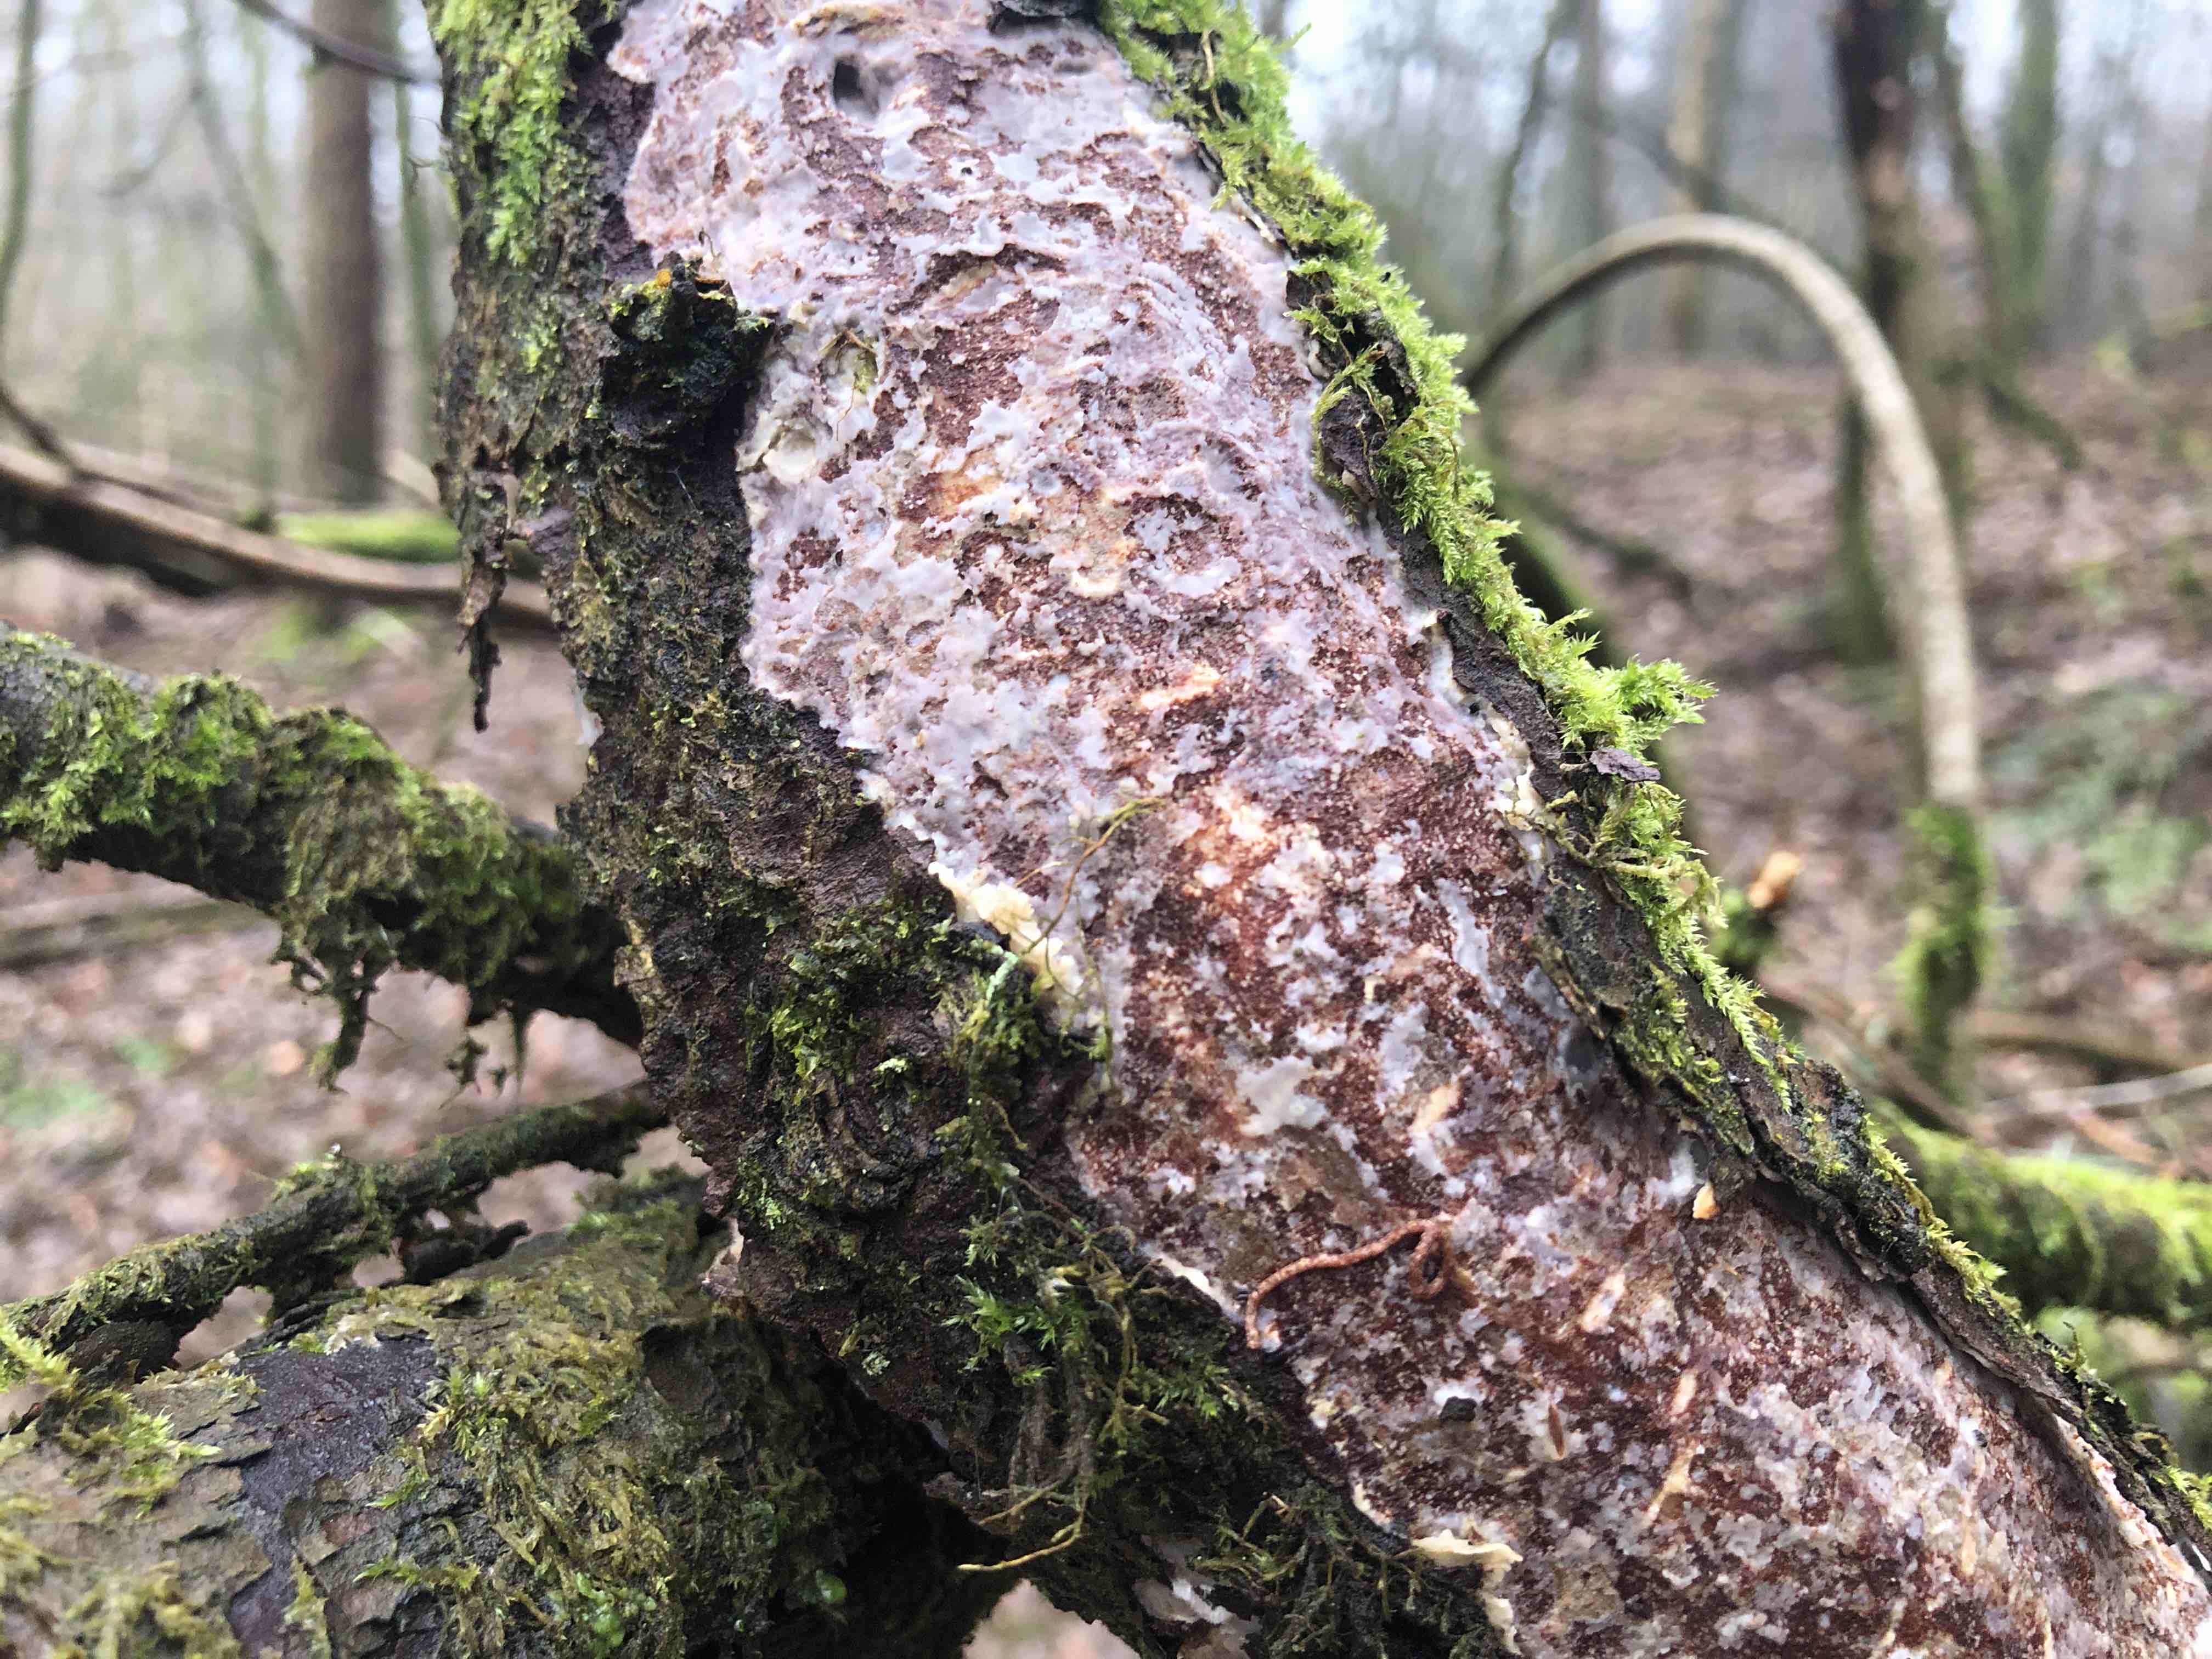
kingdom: Fungi
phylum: Basidiomycota
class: Agaricomycetes
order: Corticiales
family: Vuilleminiaceae
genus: Vuilleminia
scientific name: Vuilleminia comedens
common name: almindelig barksprænger
